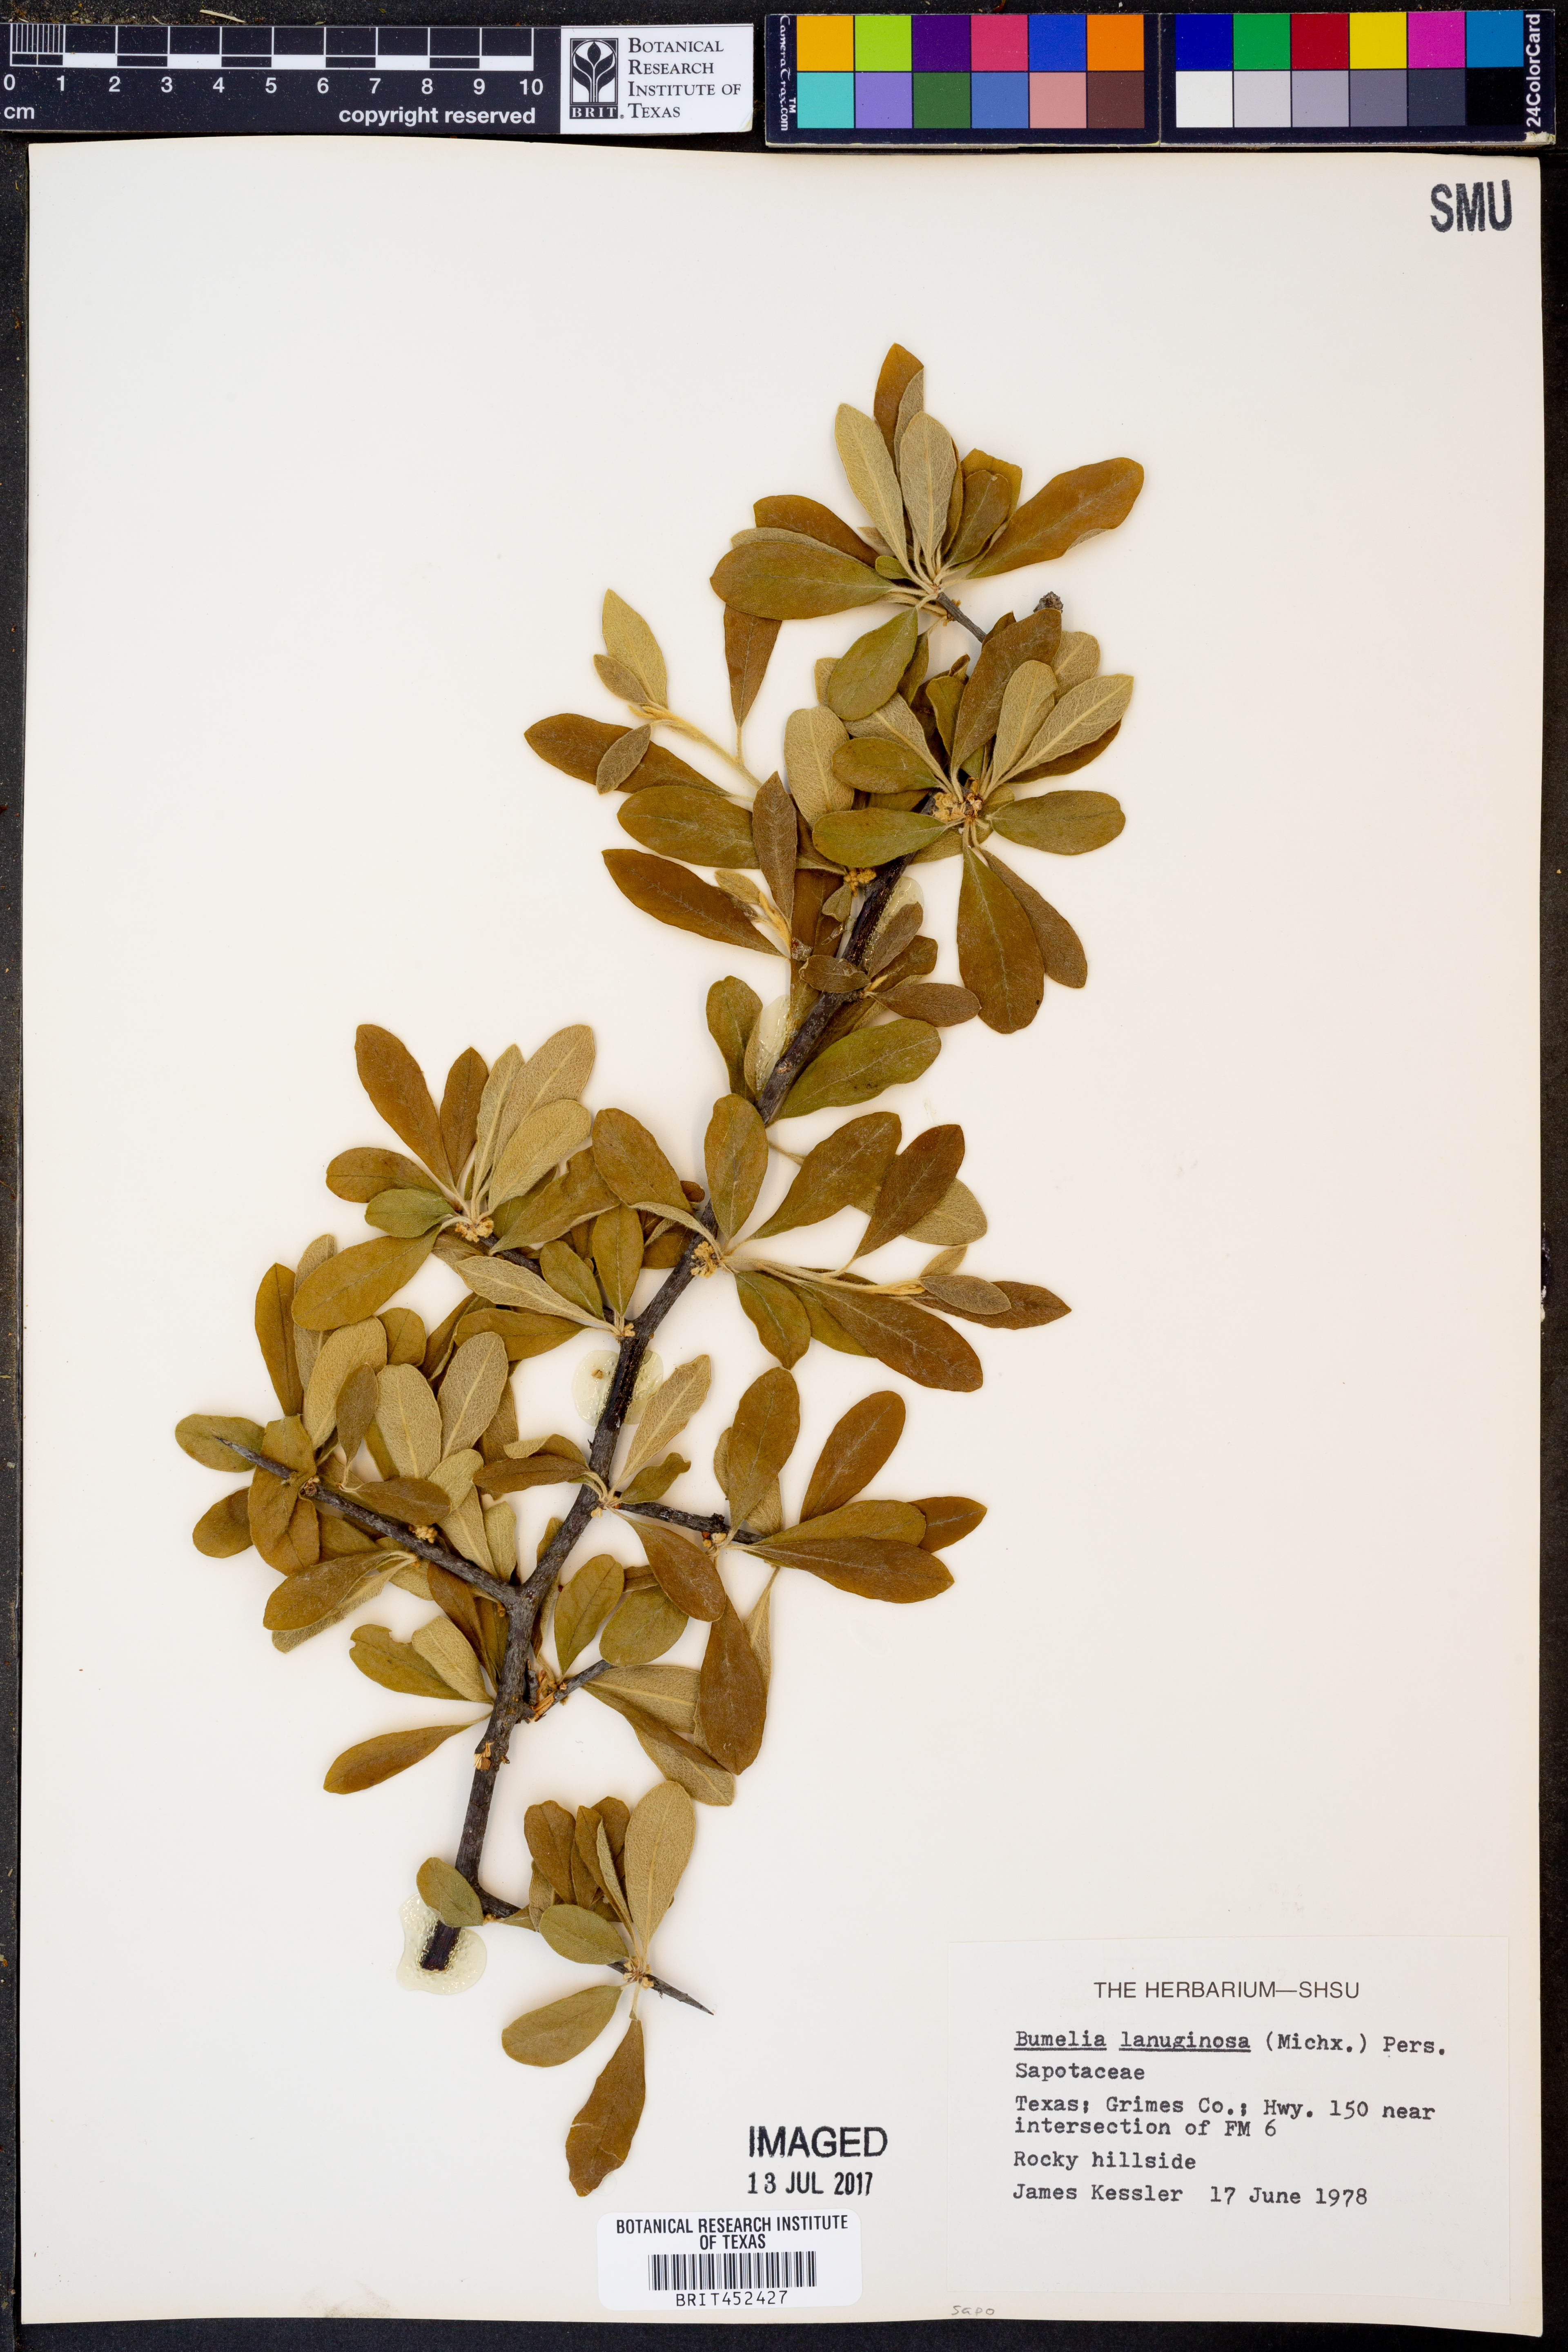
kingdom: Plantae
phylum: Tracheophyta
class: Magnoliopsida
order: Ericales
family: Sapotaceae
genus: Sideroxylon
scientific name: Sideroxylon lanuginosum
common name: Chittamwood
